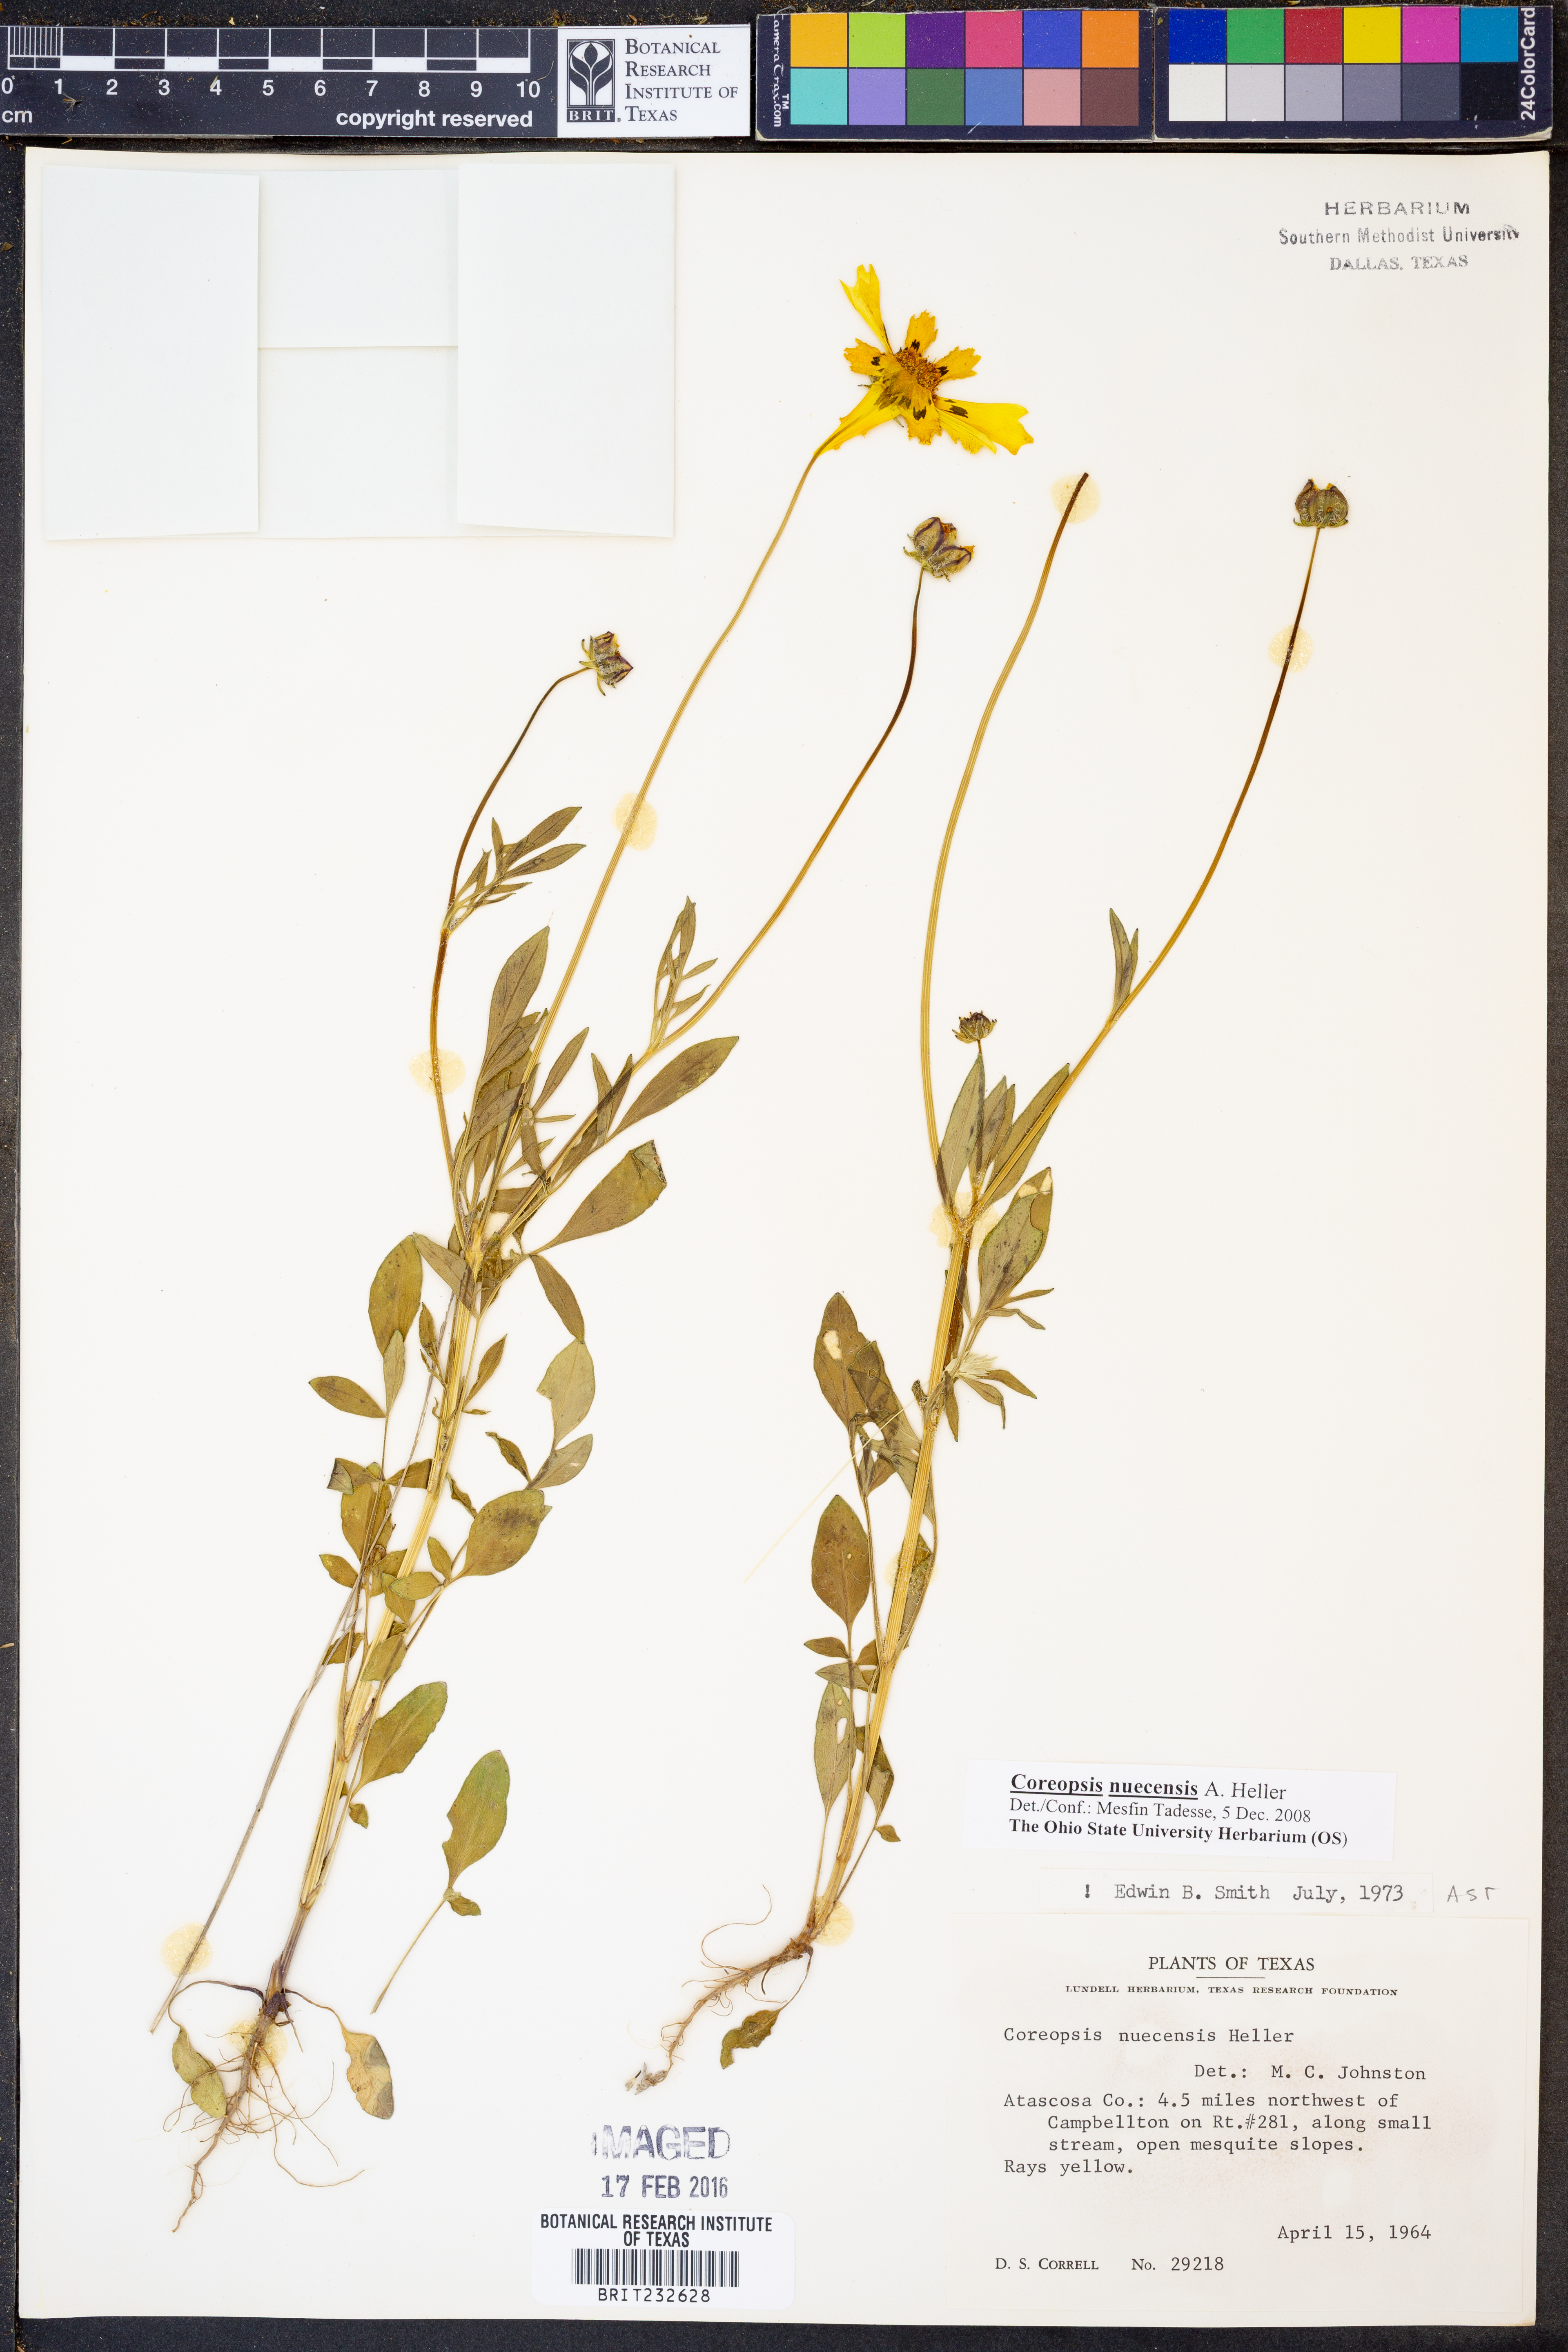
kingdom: Plantae
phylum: Tracheophyta
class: Magnoliopsida
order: Asterales
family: Asteraceae
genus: Coreopsis
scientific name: Coreopsis nuecensis
